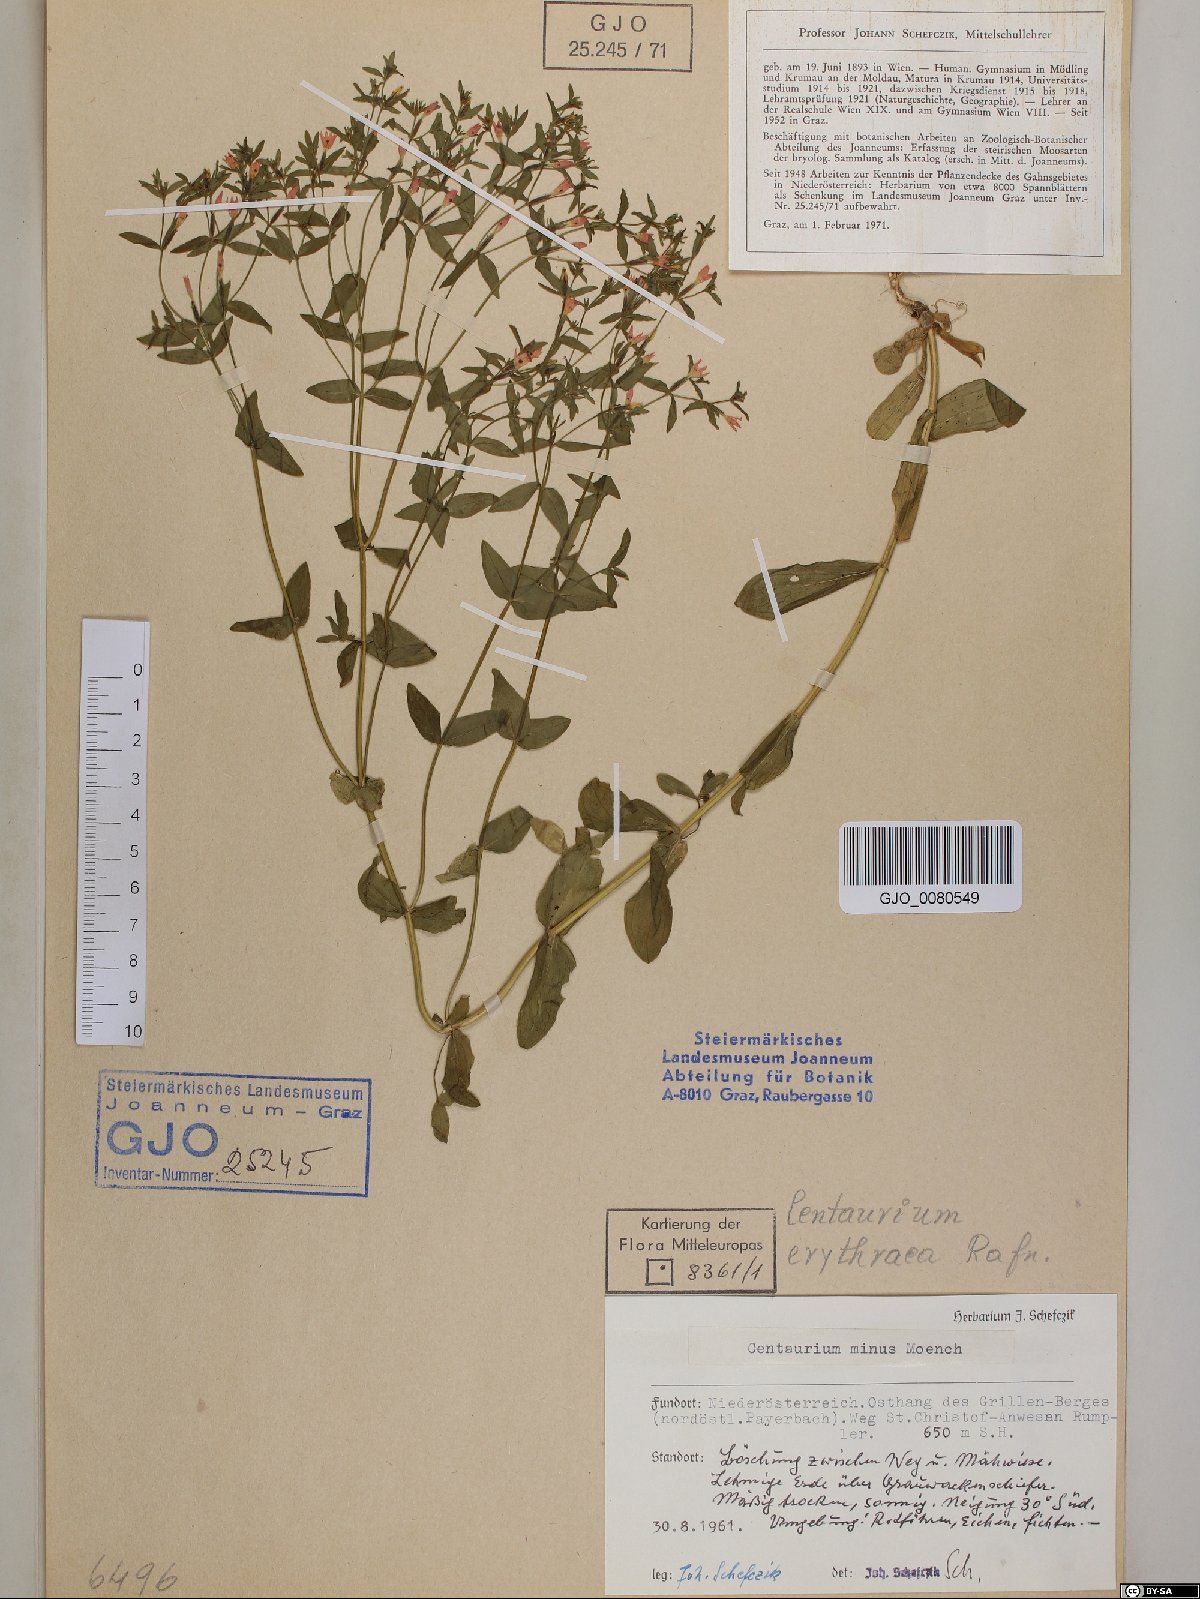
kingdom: Plantae
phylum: Tracheophyta
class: Magnoliopsida
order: Gentianales
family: Gentianaceae
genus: Centaurium
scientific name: Centaurium erythraea
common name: Common centaury
